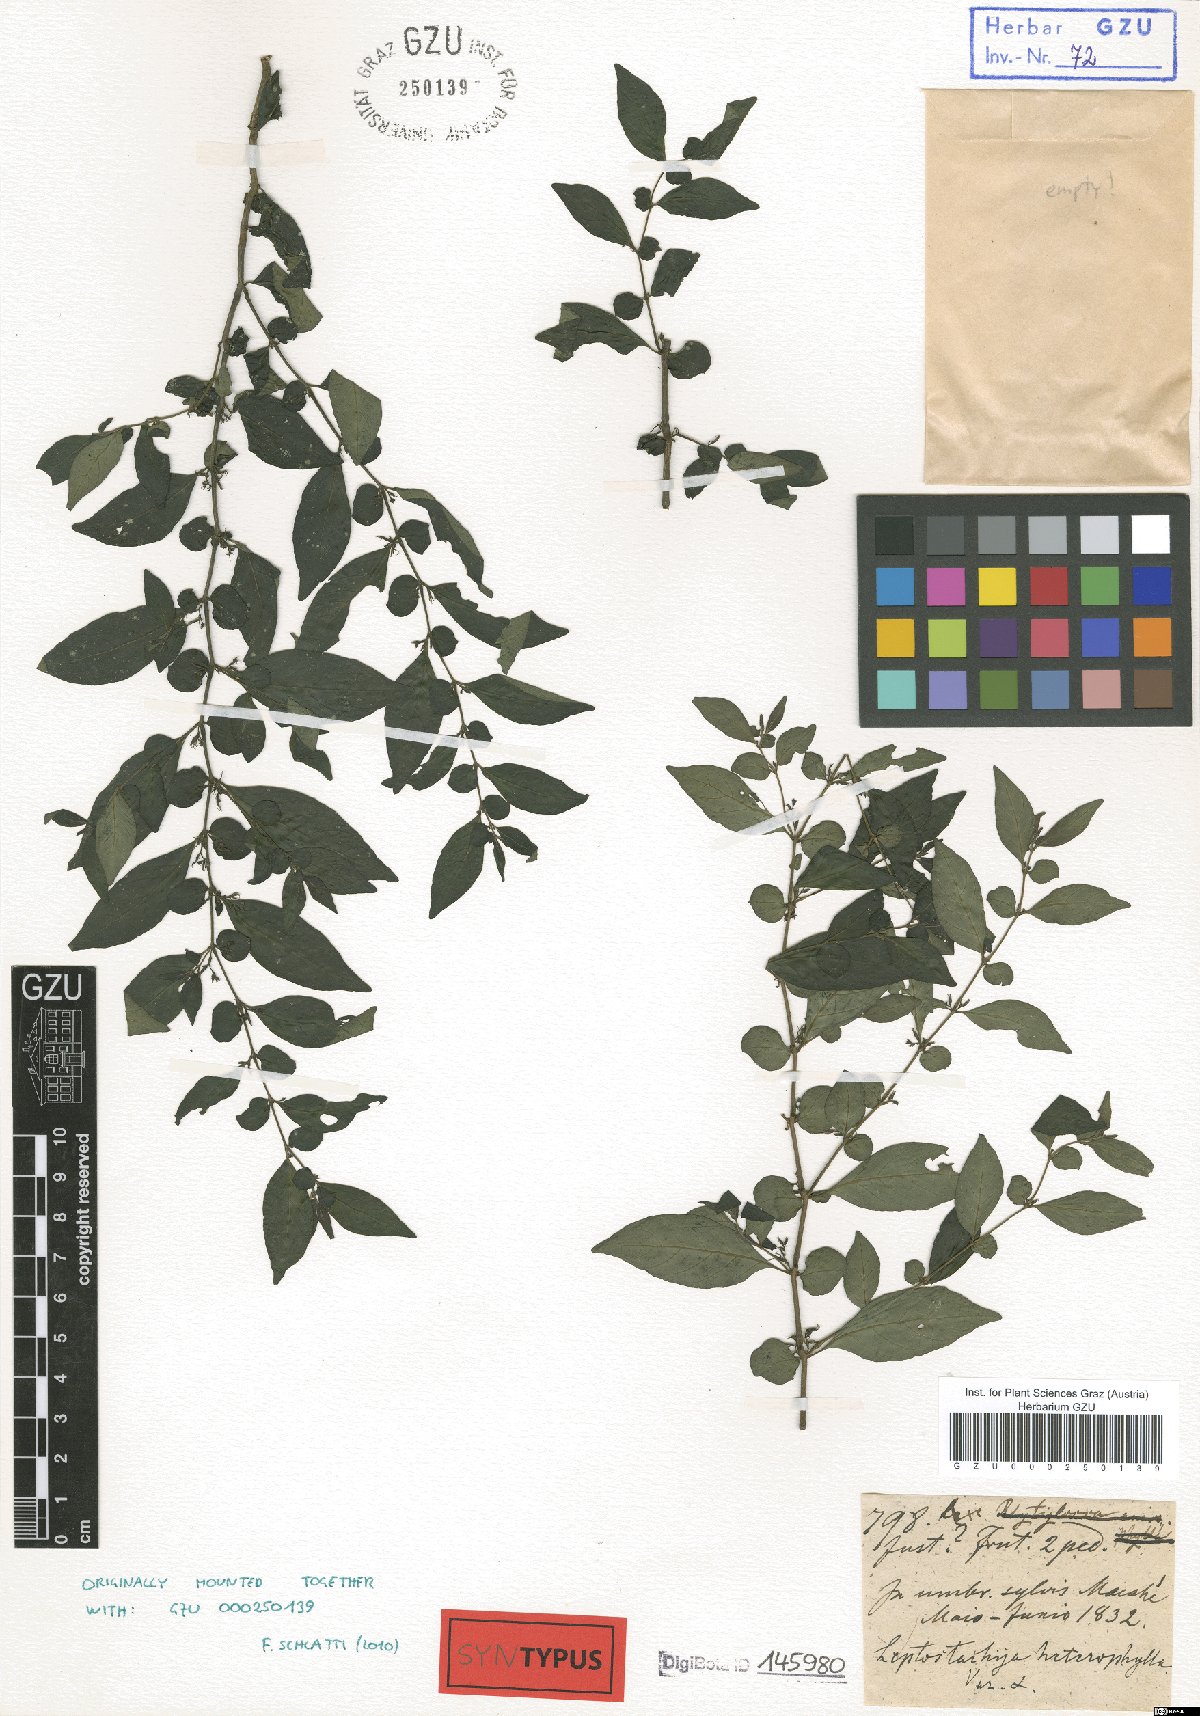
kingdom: Plantae
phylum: Tracheophyta
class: Magnoliopsida
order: Lamiales
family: Acanthaceae
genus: Justicia
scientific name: Justicia parahyba
